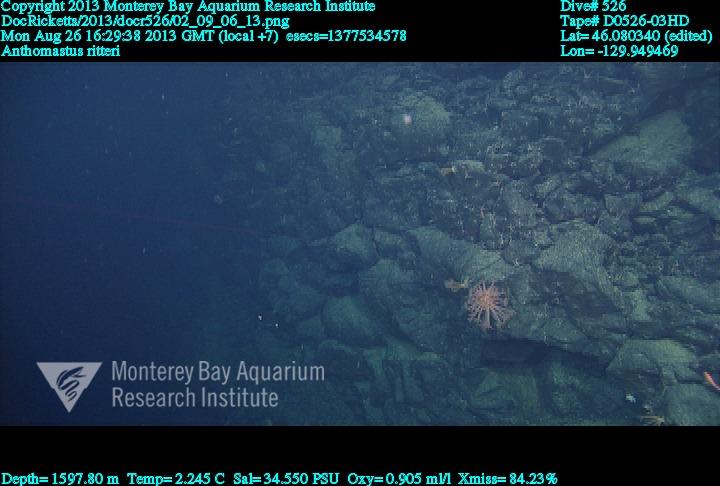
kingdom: Animalia
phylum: Cnidaria
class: Anthozoa
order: Scleralcyonacea
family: Coralliidae
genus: Heteropolypus
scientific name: Heteropolypus ritteri
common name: Ritter's soft coral
